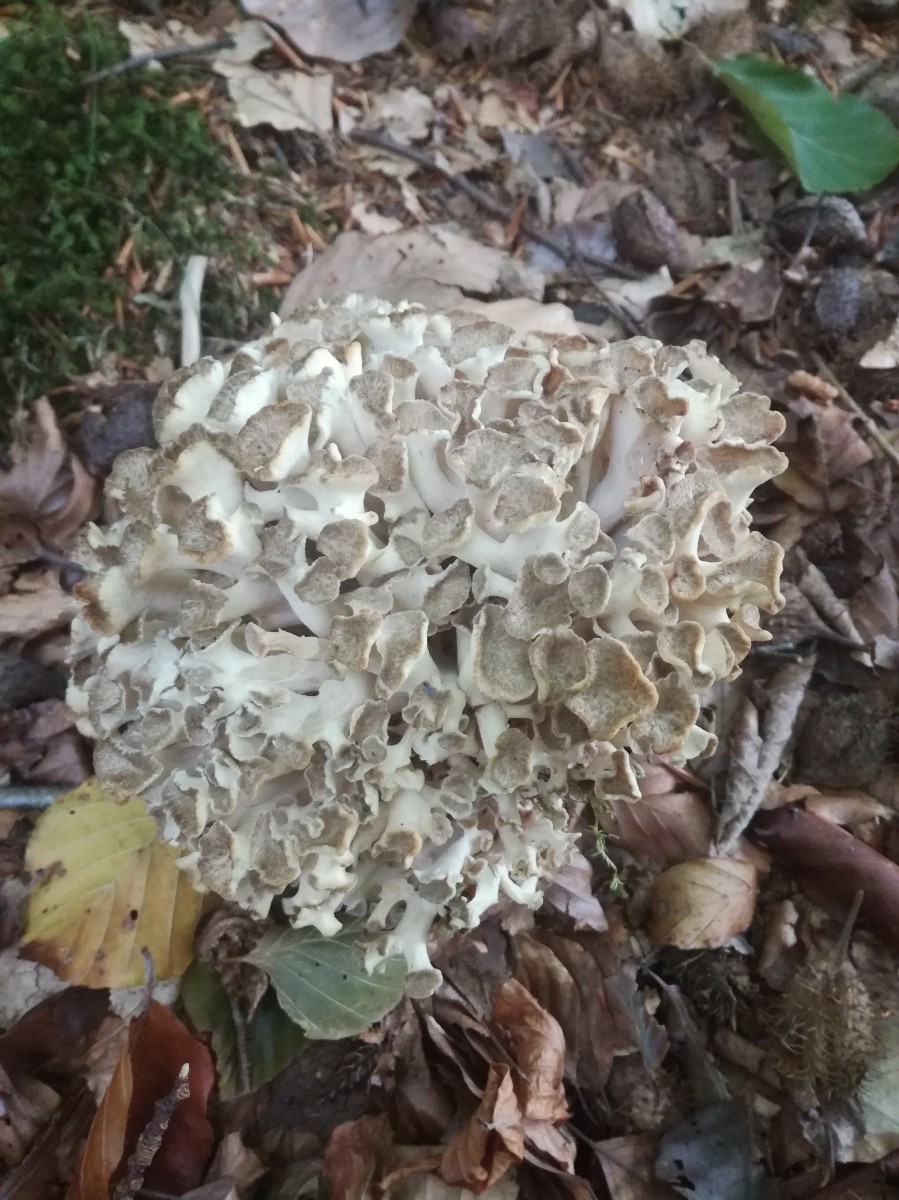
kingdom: Fungi
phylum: Basidiomycota
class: Agaricomycetes
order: Polyporales
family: Polyporaceae
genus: Polyporus
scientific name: Polyporus umbellatus
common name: skærmformet stilkporesvamp
